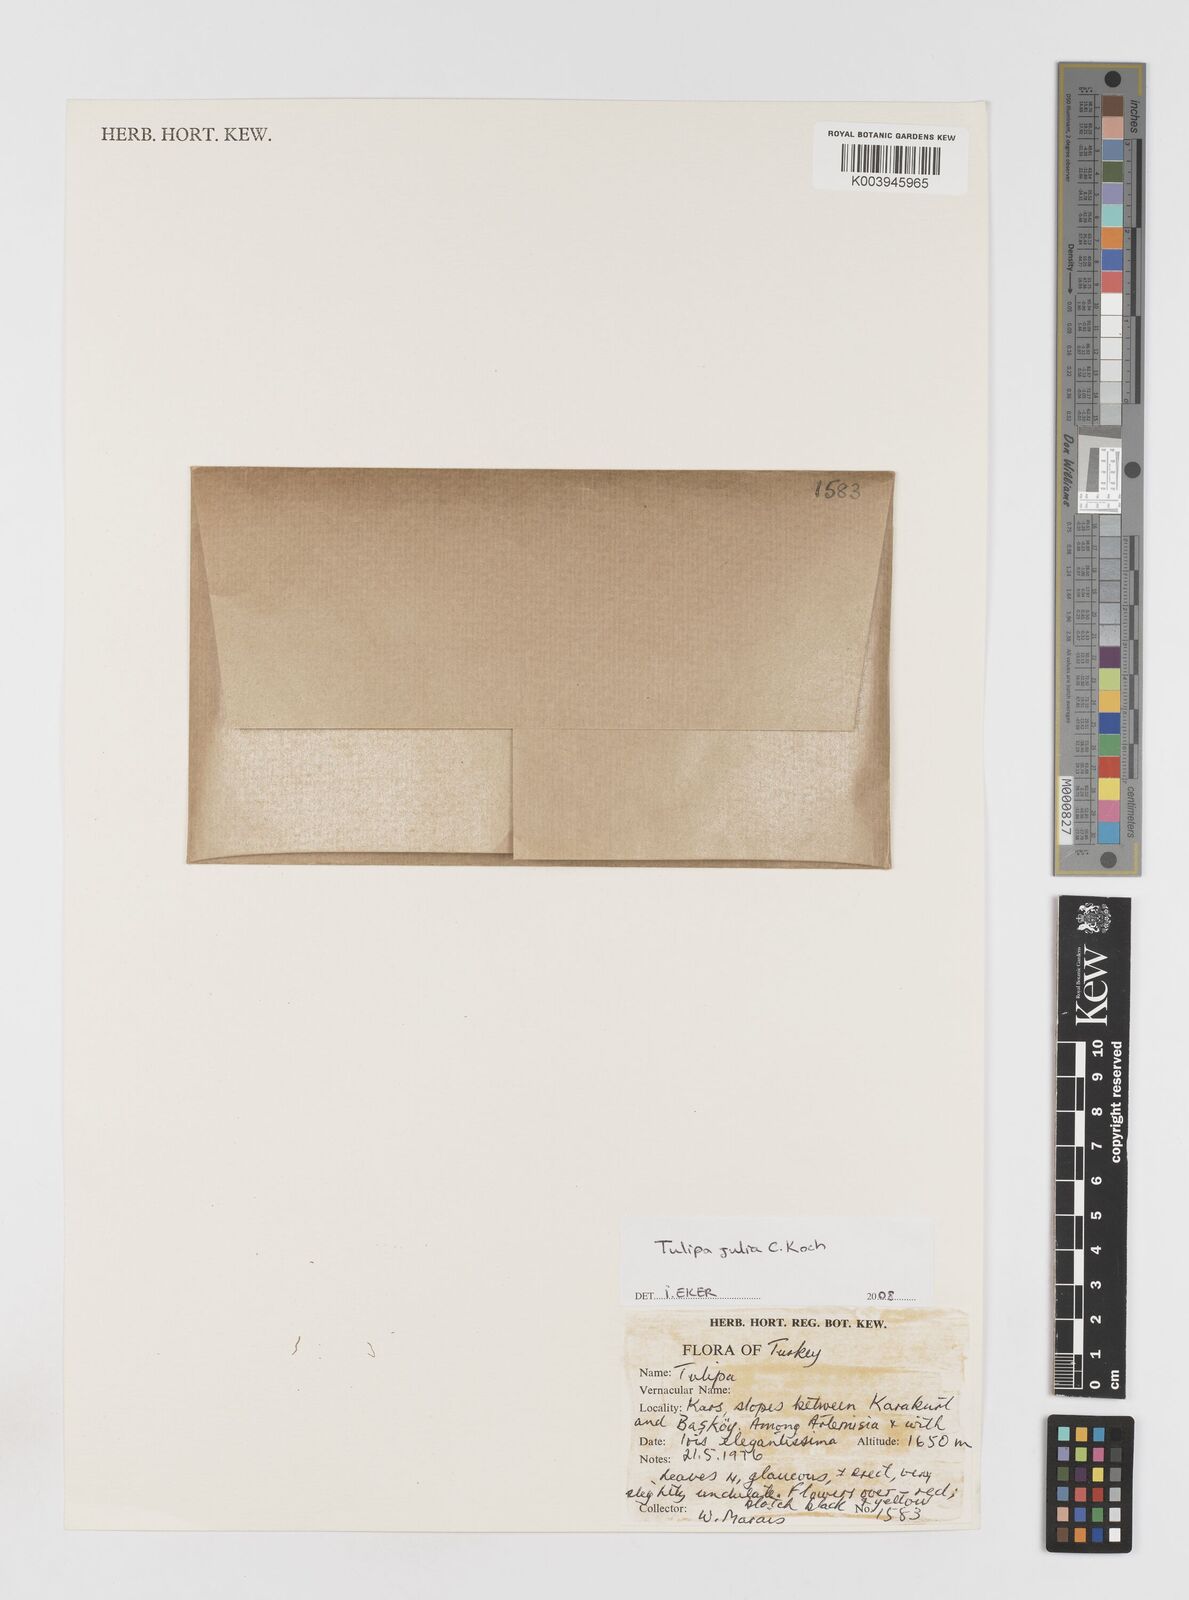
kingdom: Plantae
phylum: Tracheophyta
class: Liliopsida
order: Liliales
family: Liliaceae
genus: Tulipa
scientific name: Tulipa julia
